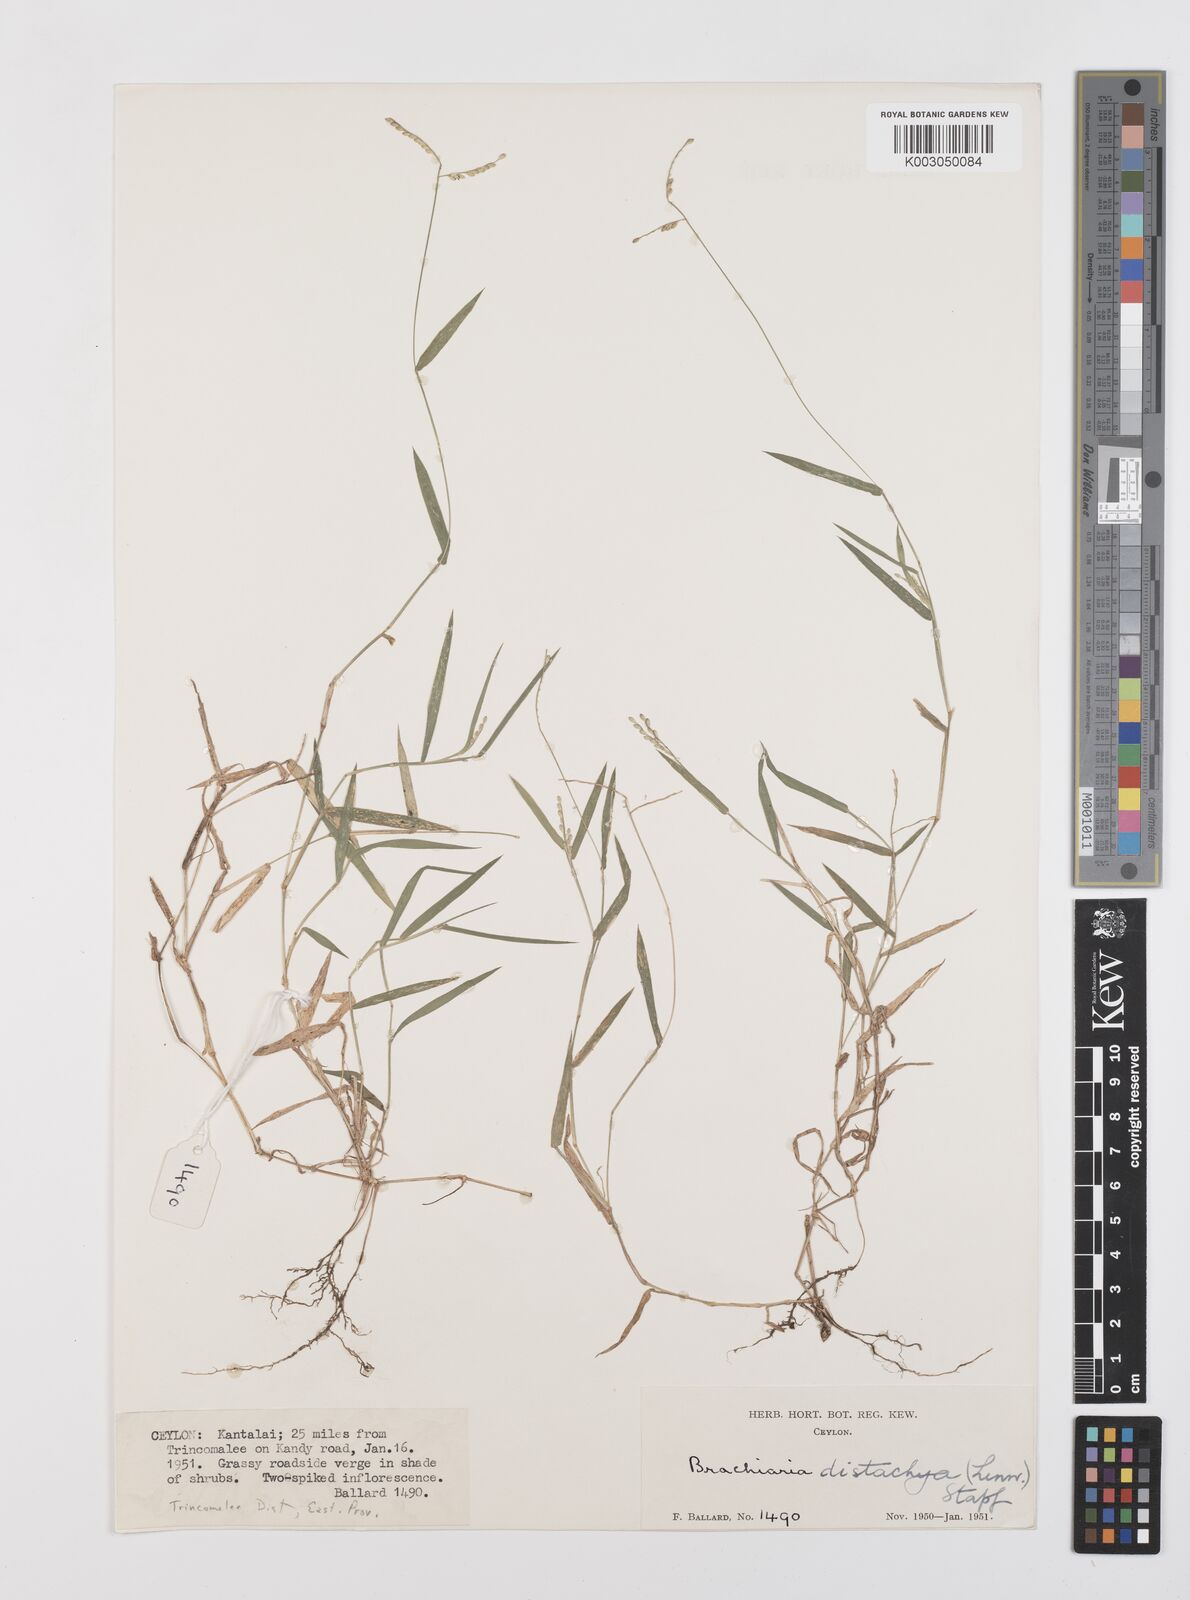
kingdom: Plantae
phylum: Tracheophyta
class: Liliopsida
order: Poales
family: Poaceae
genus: Urochloa
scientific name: Urochloa distachyos
